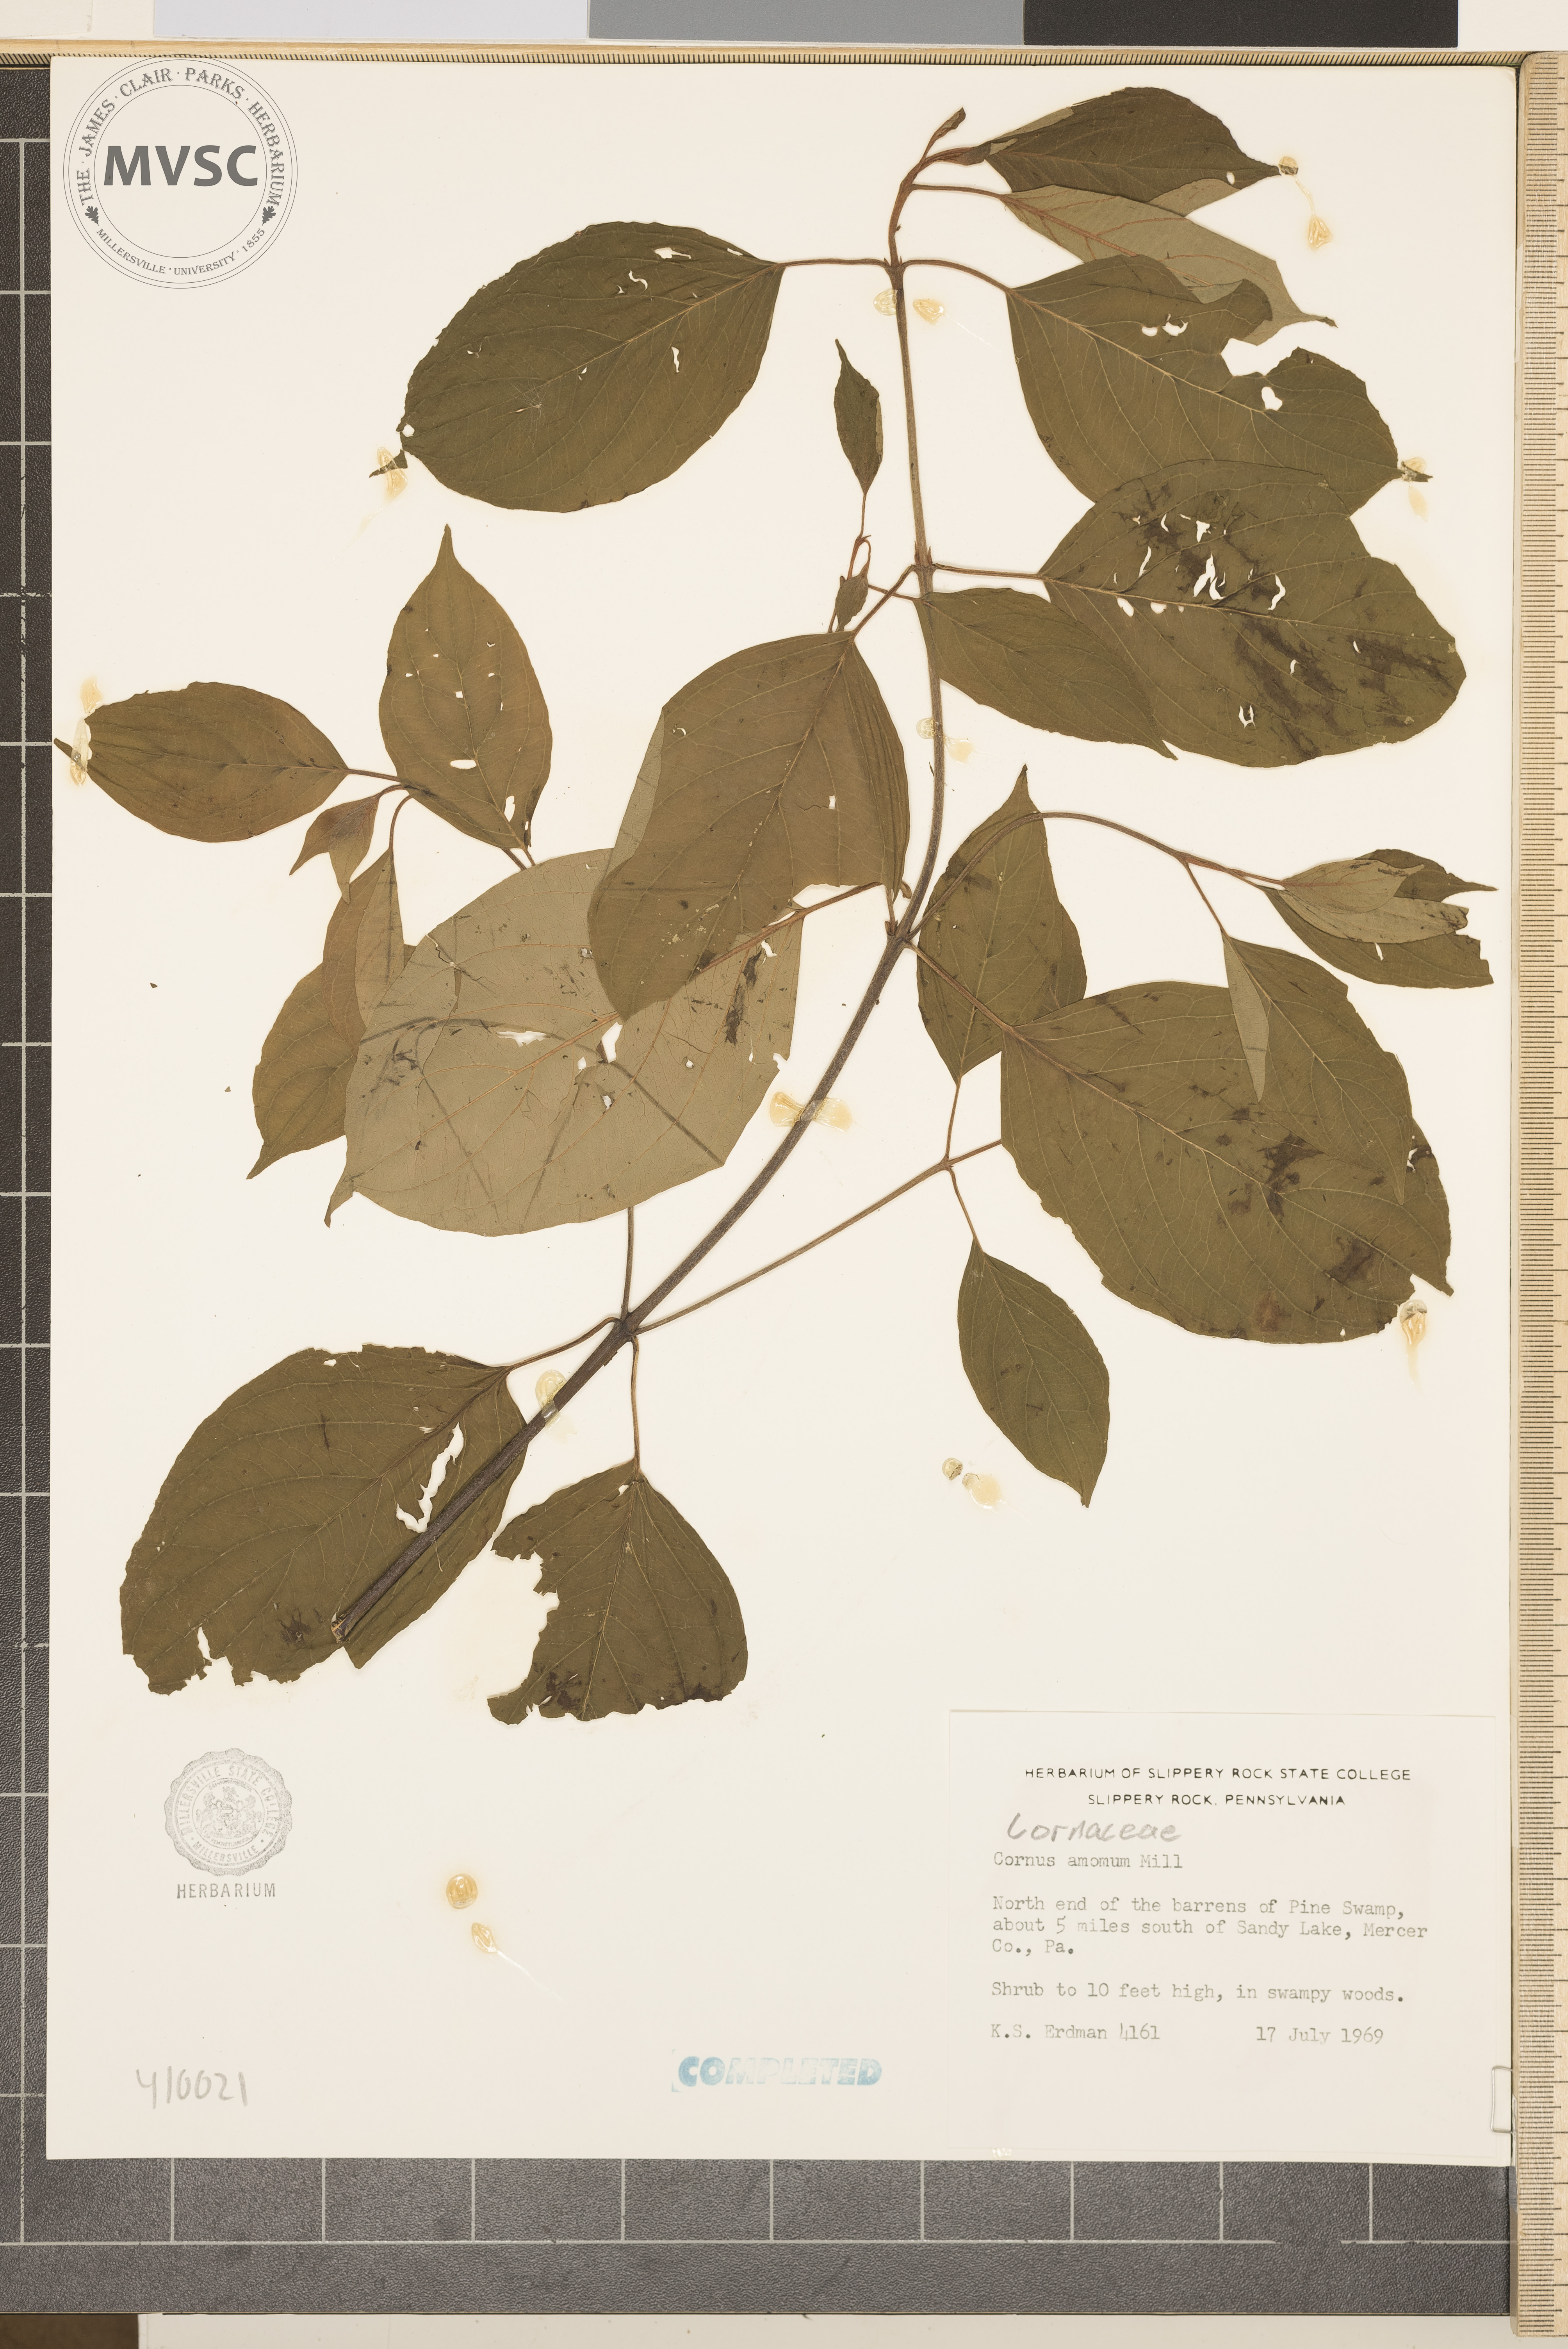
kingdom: Plantae
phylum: Tracheophyta
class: Magnoliopsida
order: Cornales
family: Cornaceae
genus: Cornus
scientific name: Cornus amomum
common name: Silky dogwood
